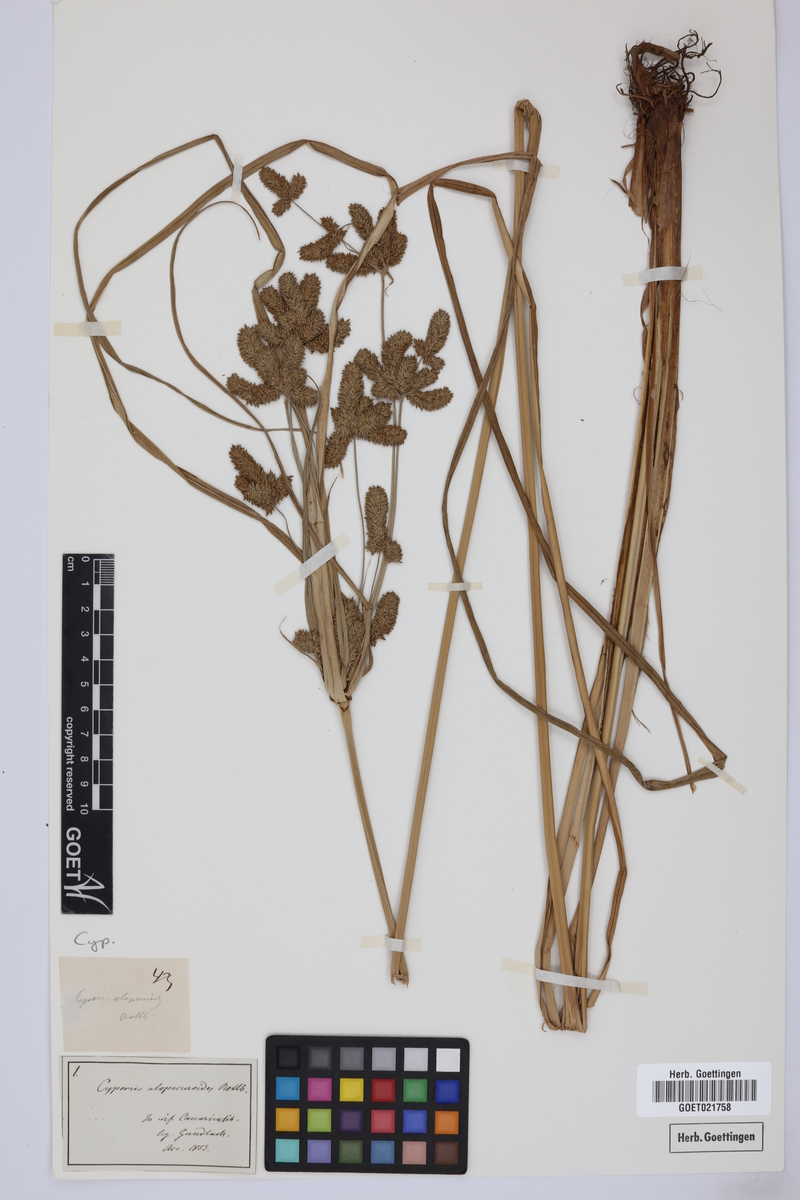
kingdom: Plantae
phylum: Tracheophyta
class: Liliopsida
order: Poales
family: Cyperaceae
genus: Cyperus
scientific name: Cyperus alopecuroides
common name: Foxtail flatsedge
